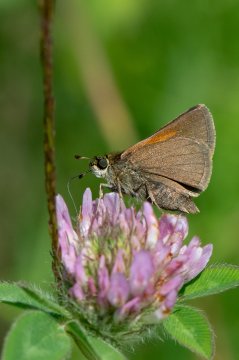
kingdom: Animalia
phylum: Arthropoda
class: Insecta
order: Lepidoptera
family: Hesperiidae
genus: Polites
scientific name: Polites themistocles
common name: Tawny-edged Skipper
